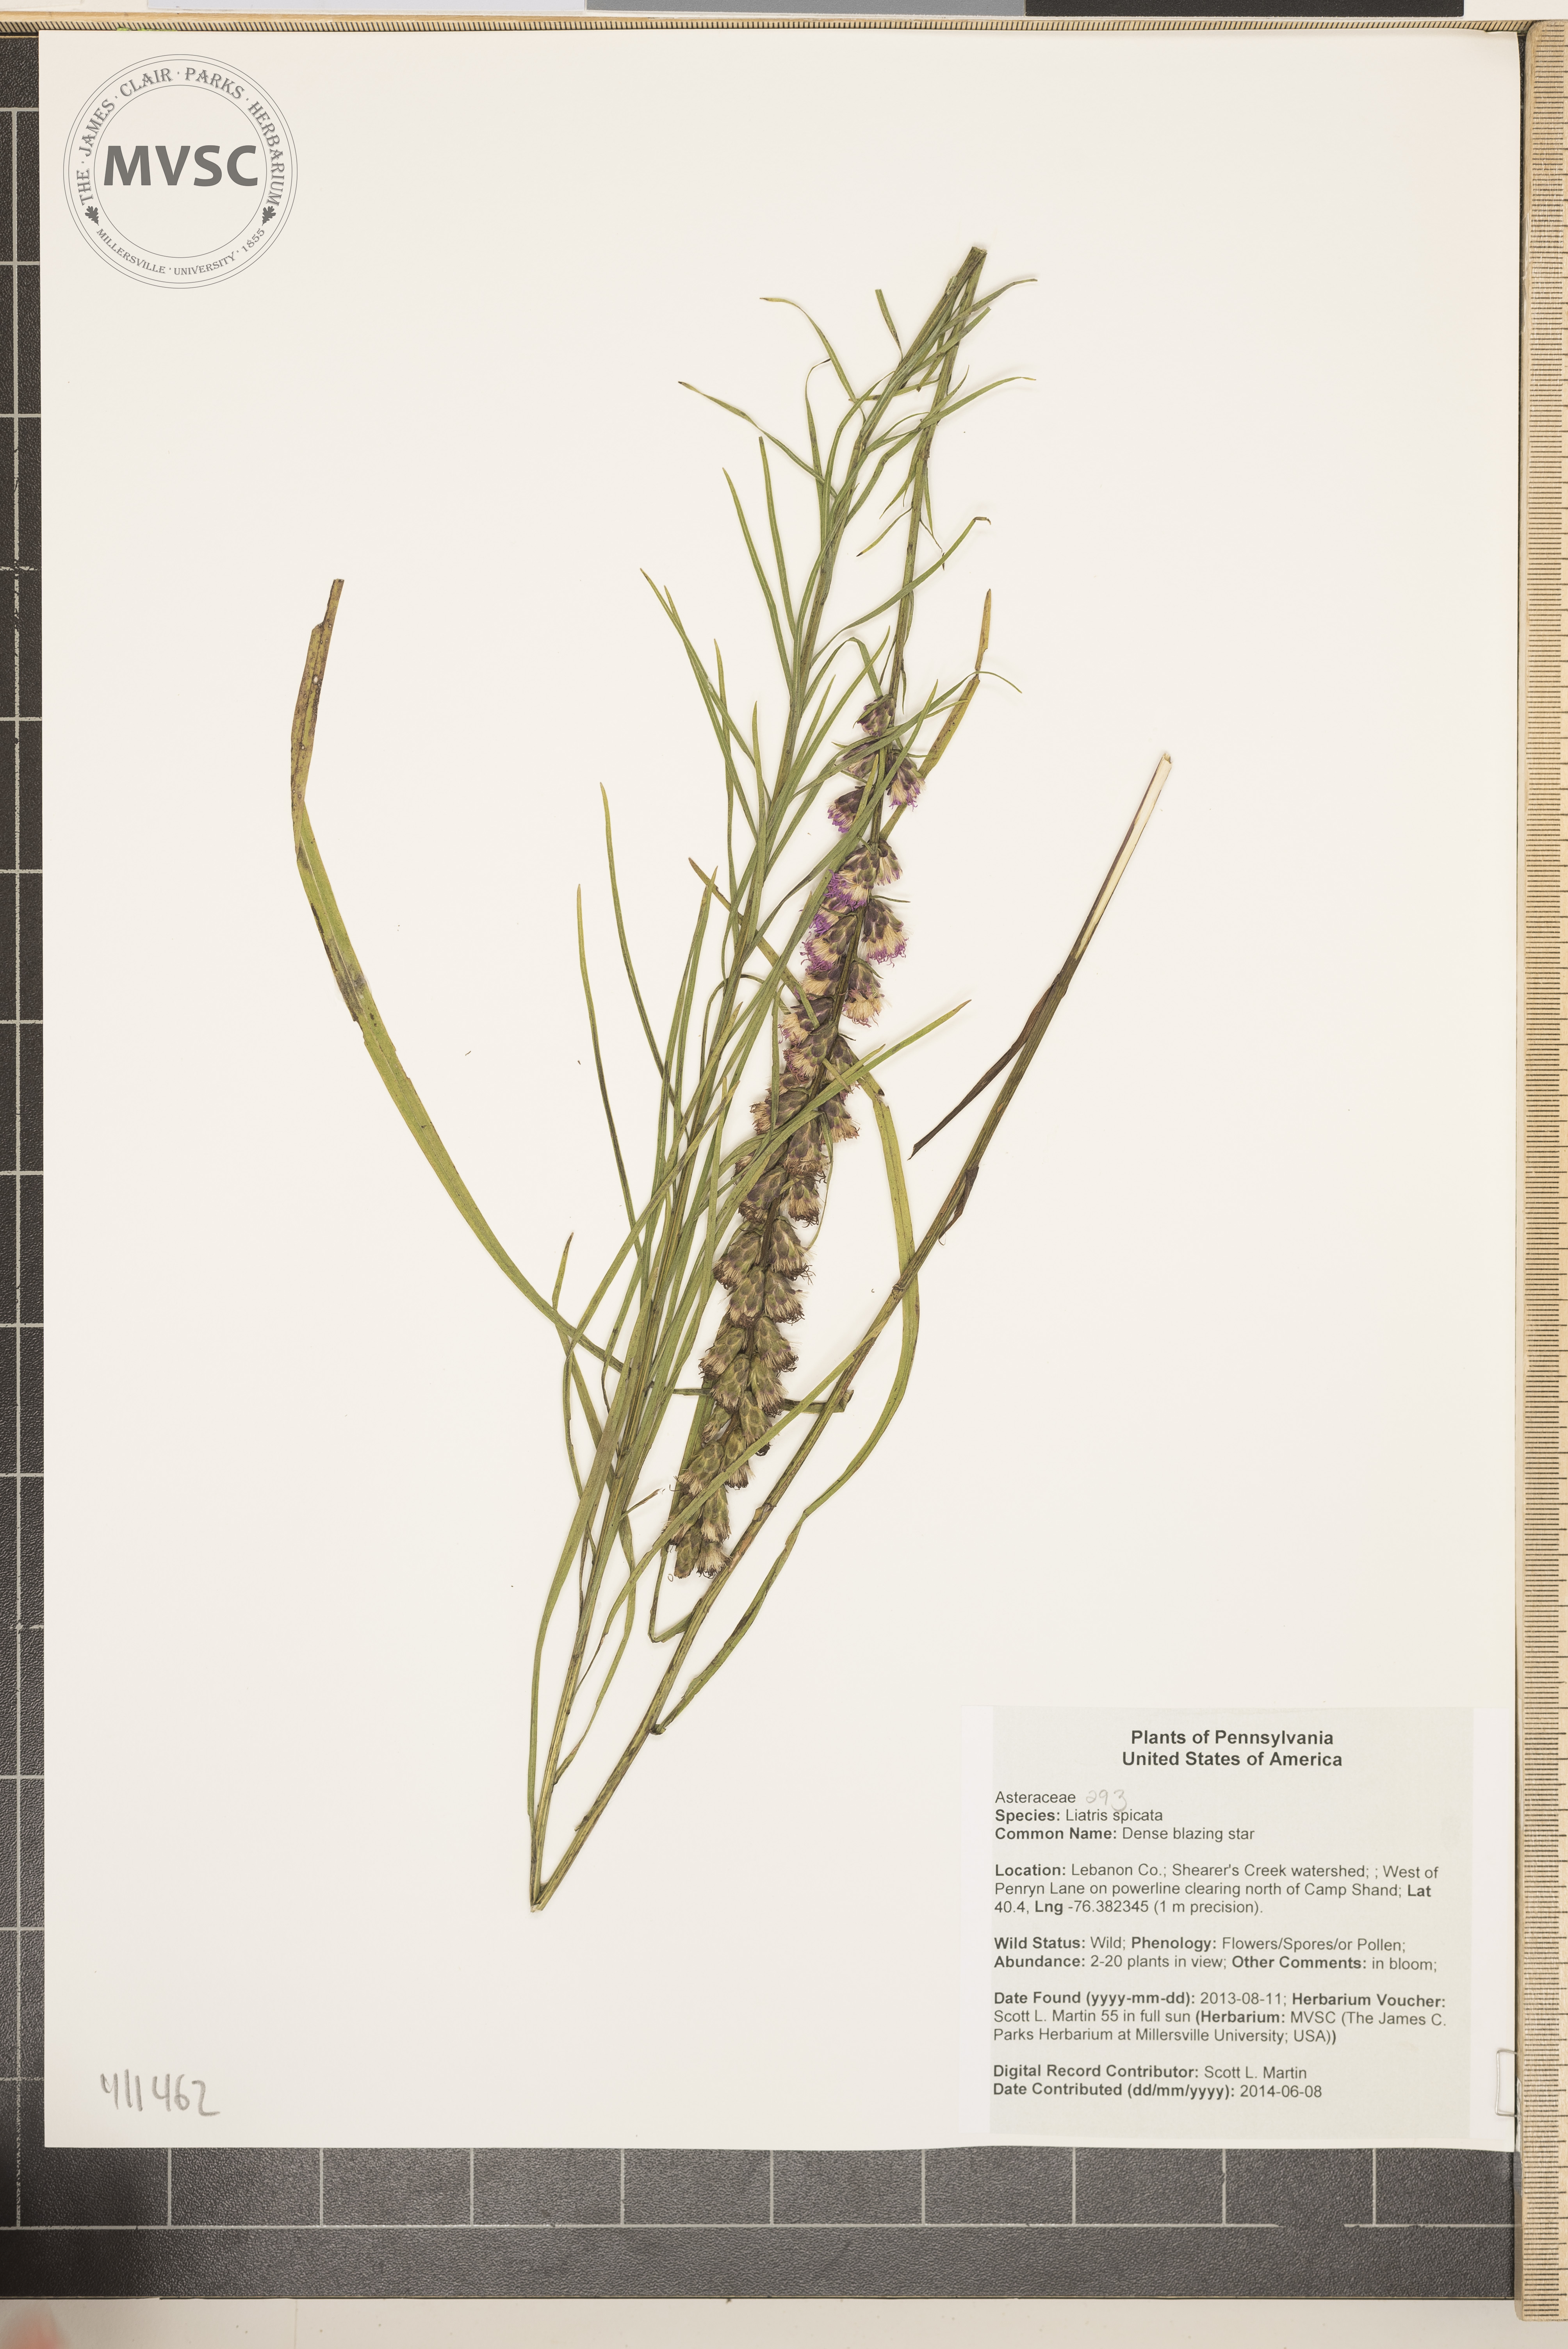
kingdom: Plantae
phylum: Tracheophyta
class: Magnoliopsida
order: Asterales
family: Asteraceae
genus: Liatris
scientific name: Liatris spicata
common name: Dense blazing star
